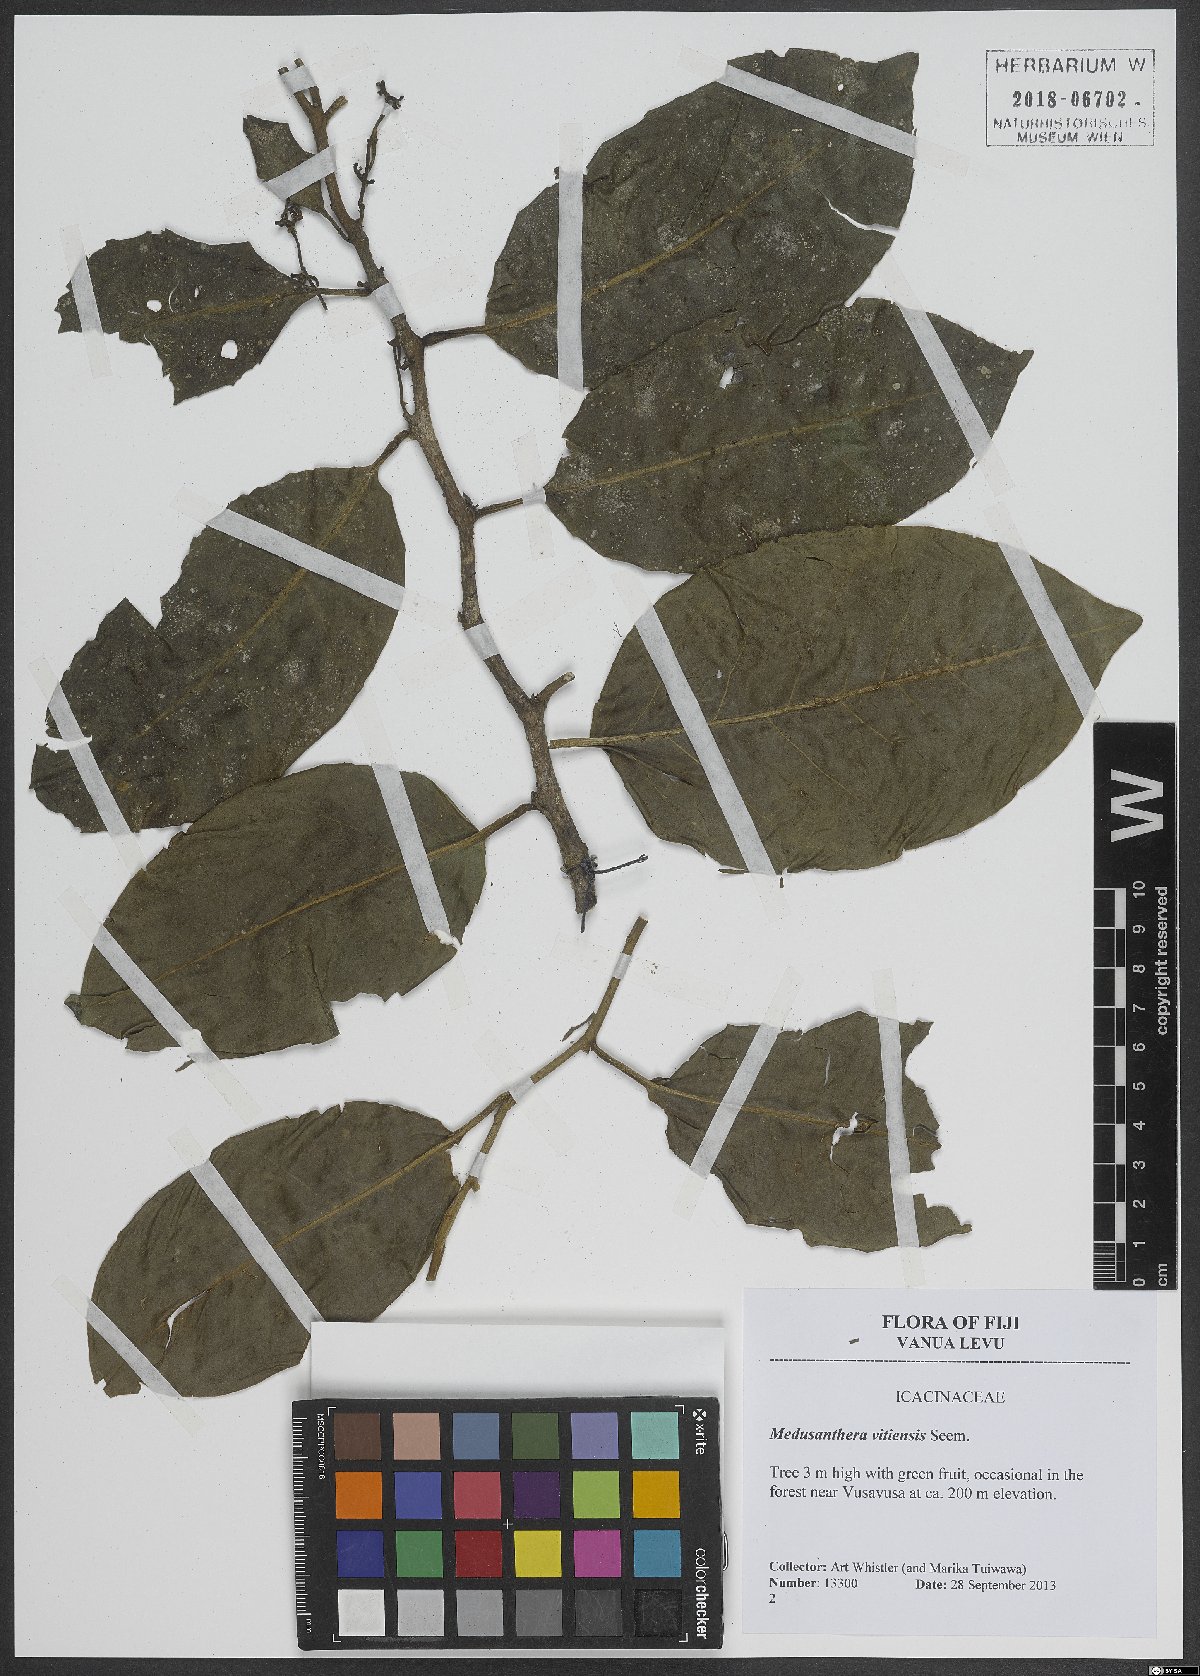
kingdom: Plantae
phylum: Tracheophyta
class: Magnoliopsida
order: Cardiopteridales
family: Stemonuraceae
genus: Medusanthera
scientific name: Medusanthera vitiensis
